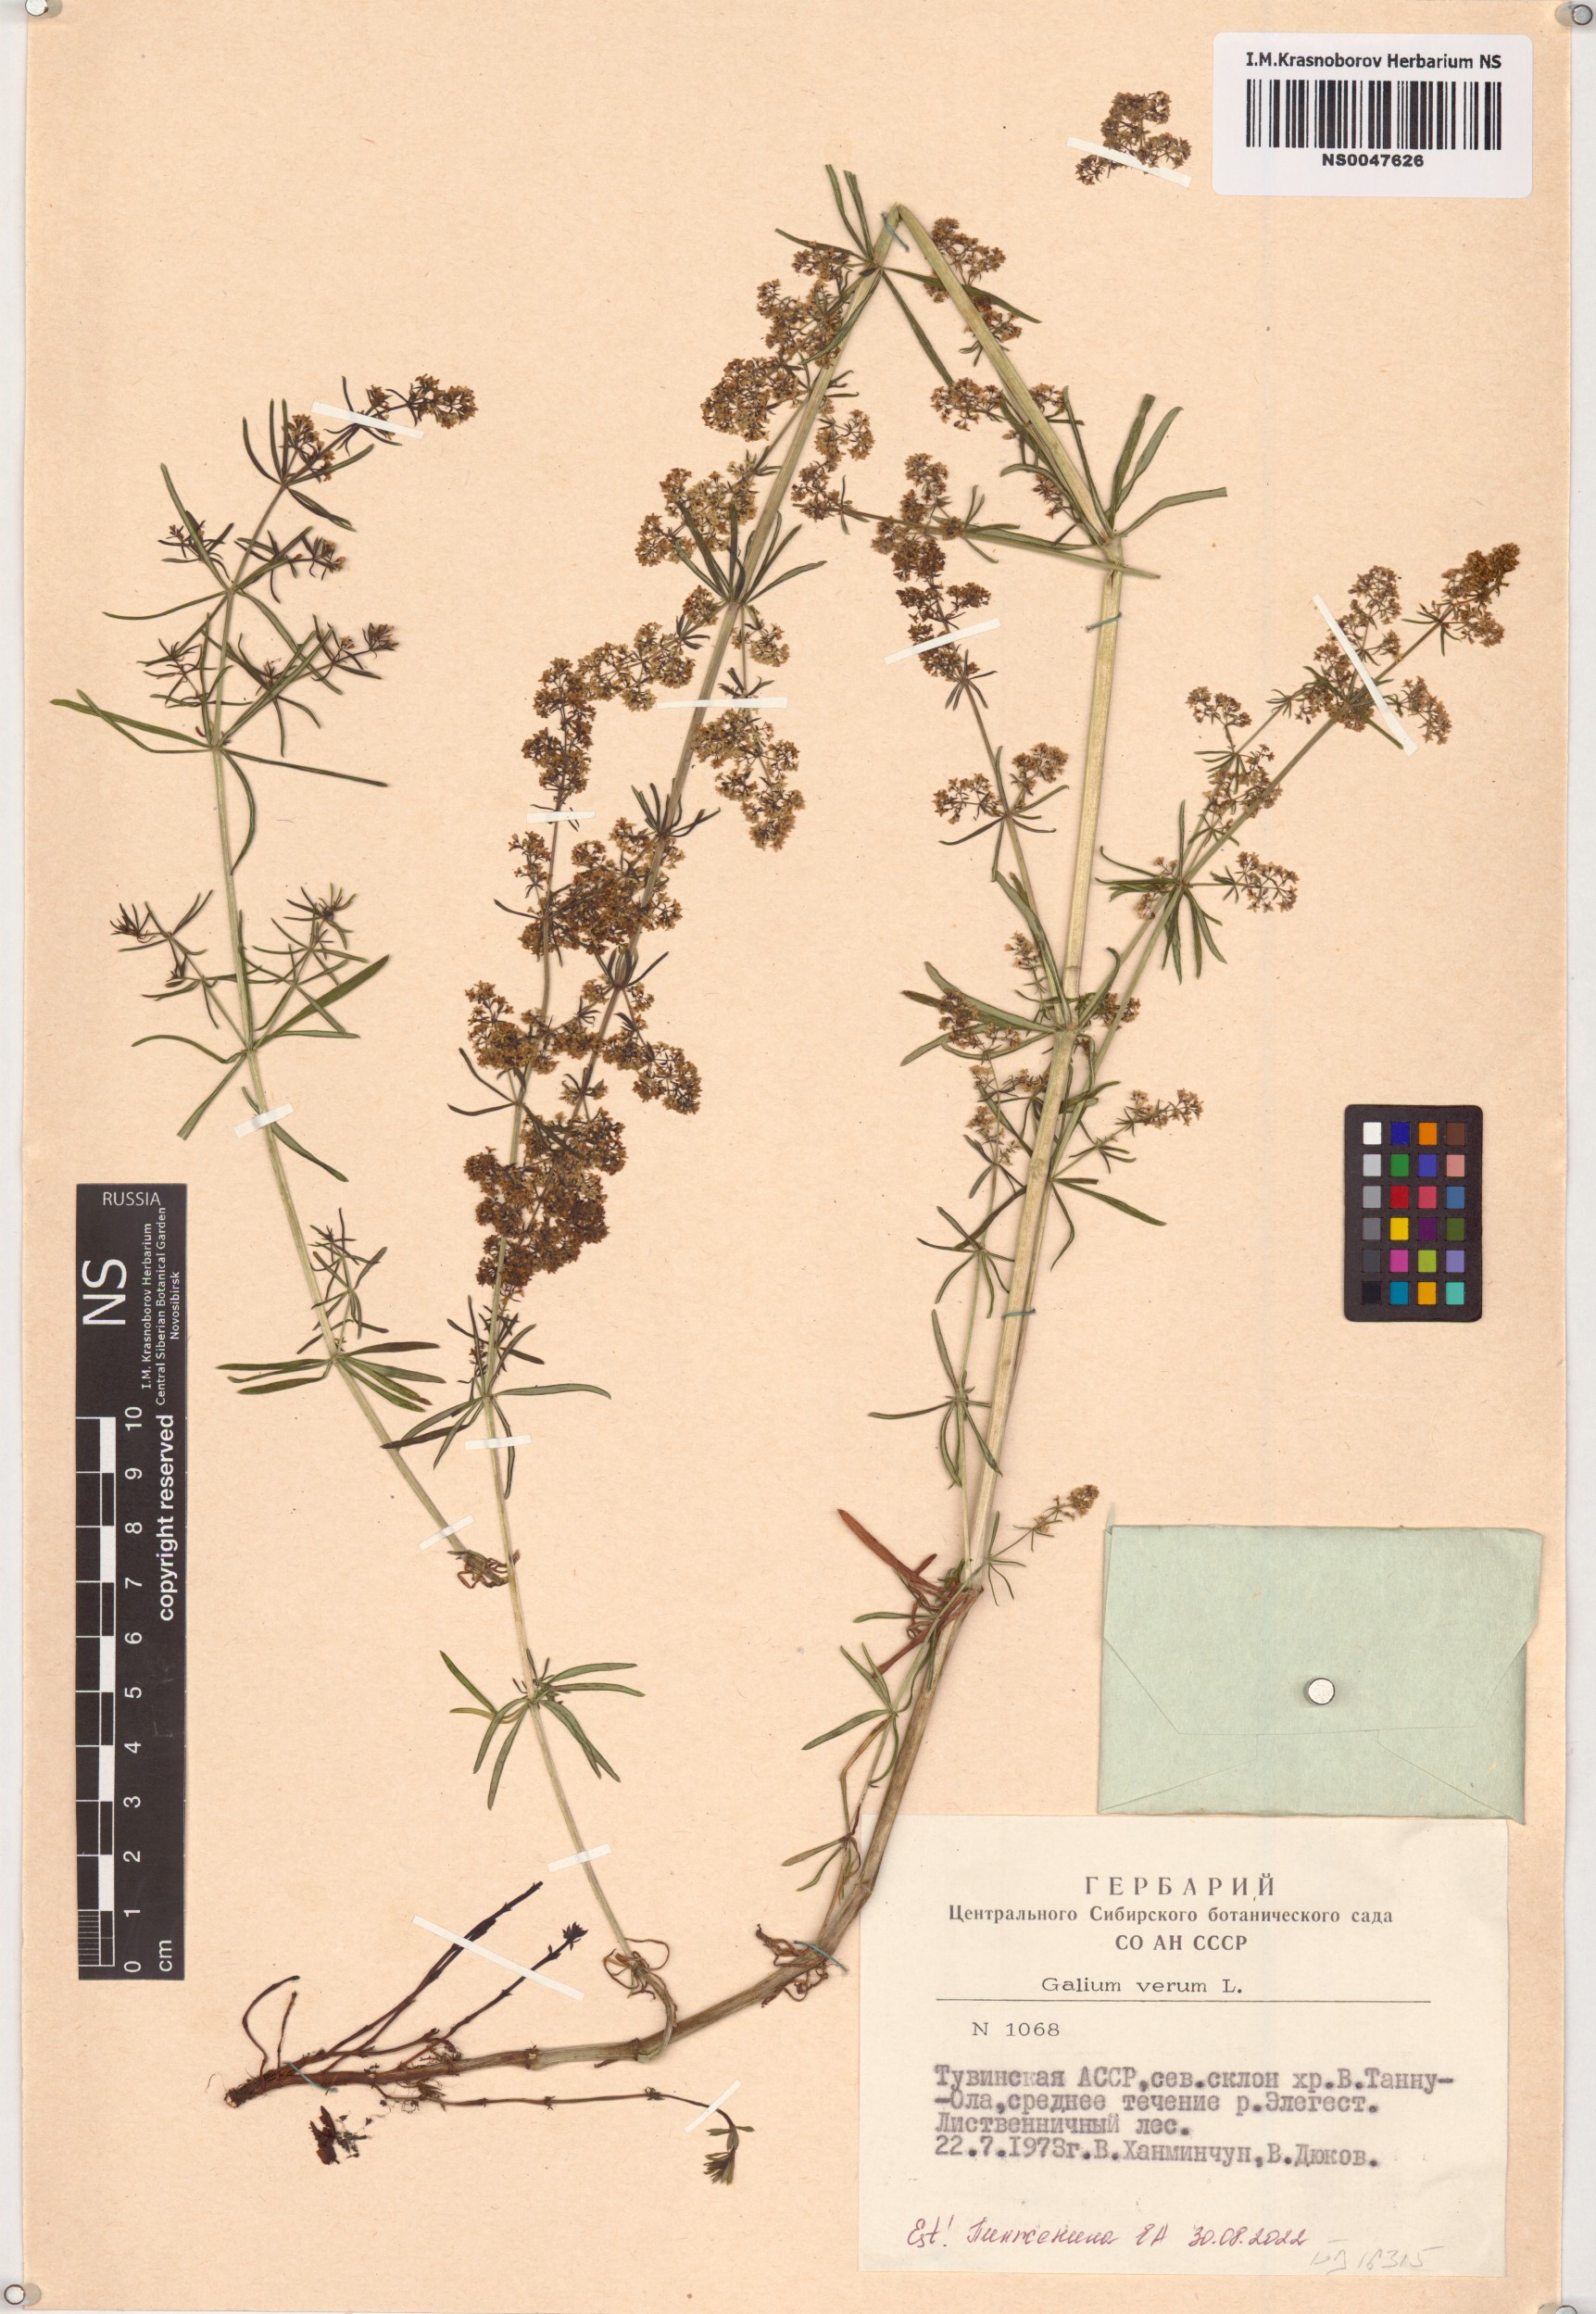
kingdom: Plantae
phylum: Tracheophyta
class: Magnoliopsida
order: Gentianales
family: Rubiaceae
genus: Galium
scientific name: Galium verum
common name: Lady's bedstraw
